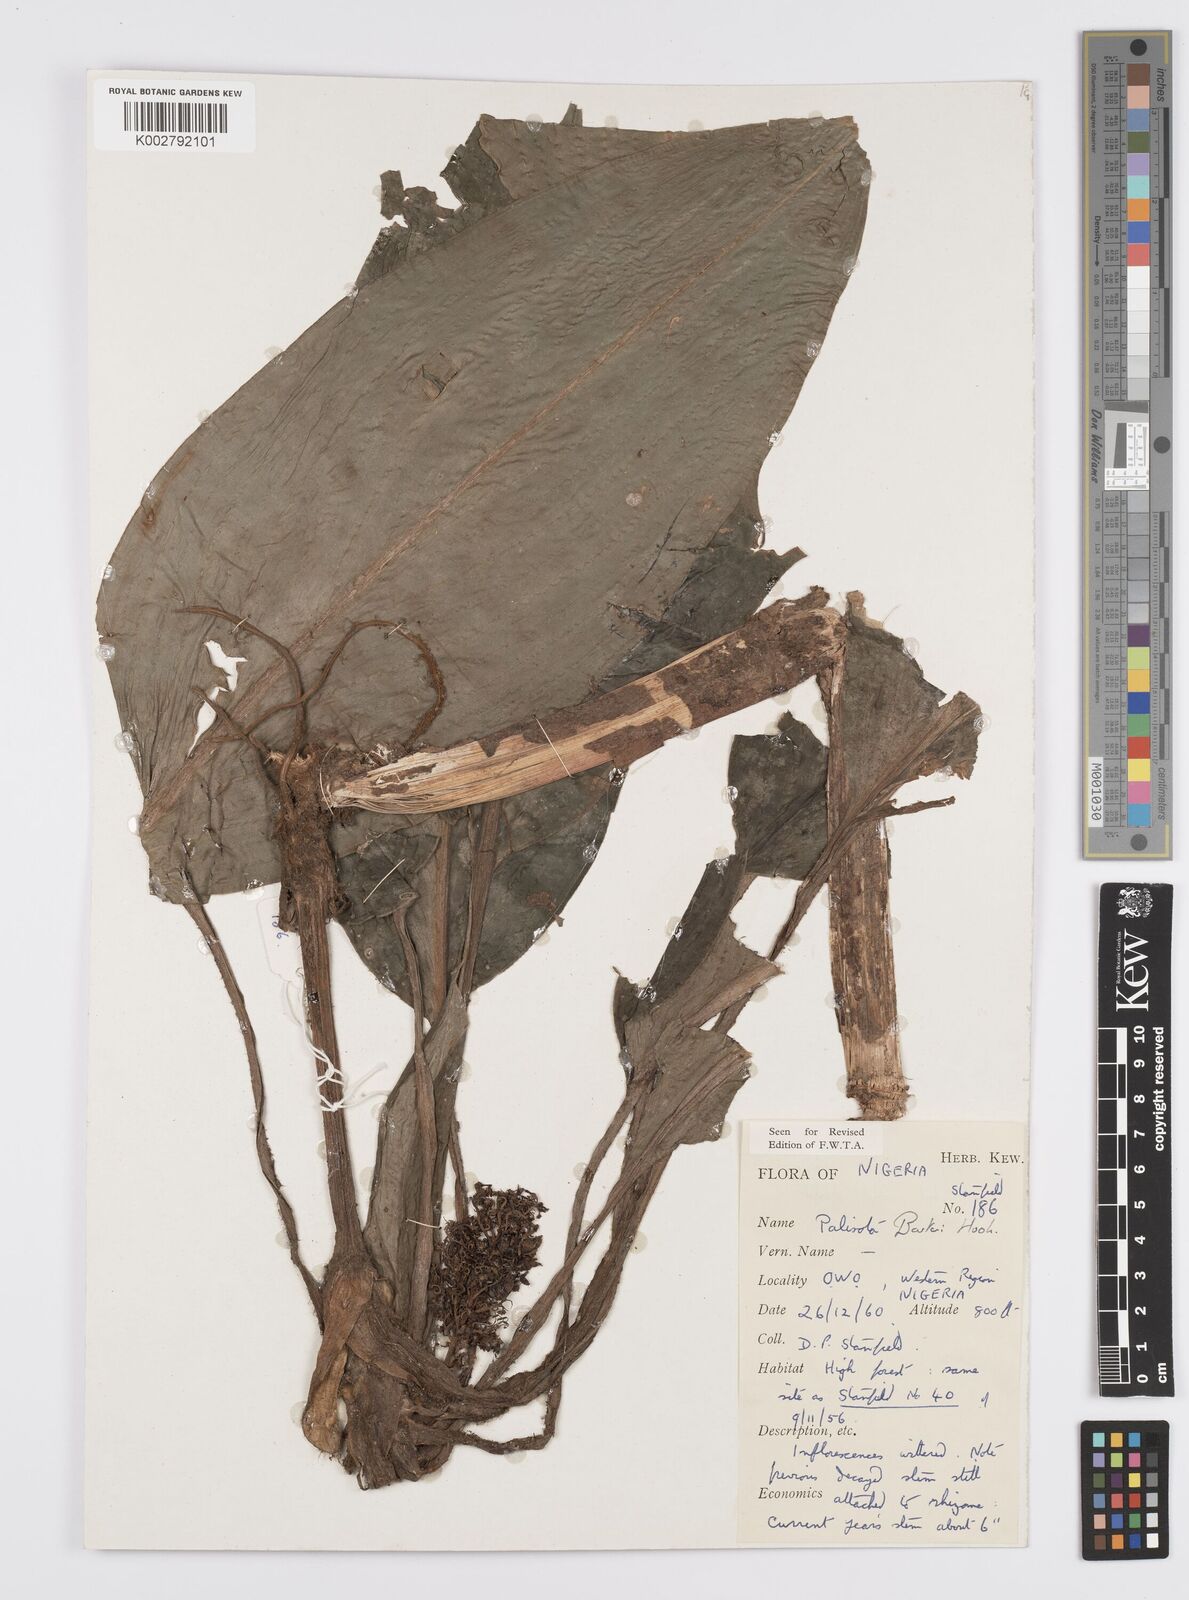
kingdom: Plantae
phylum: Tracheophyta
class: Liliopsida
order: Commelinales
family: Commelinaceae
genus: Palisota
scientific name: Palisota barteri
